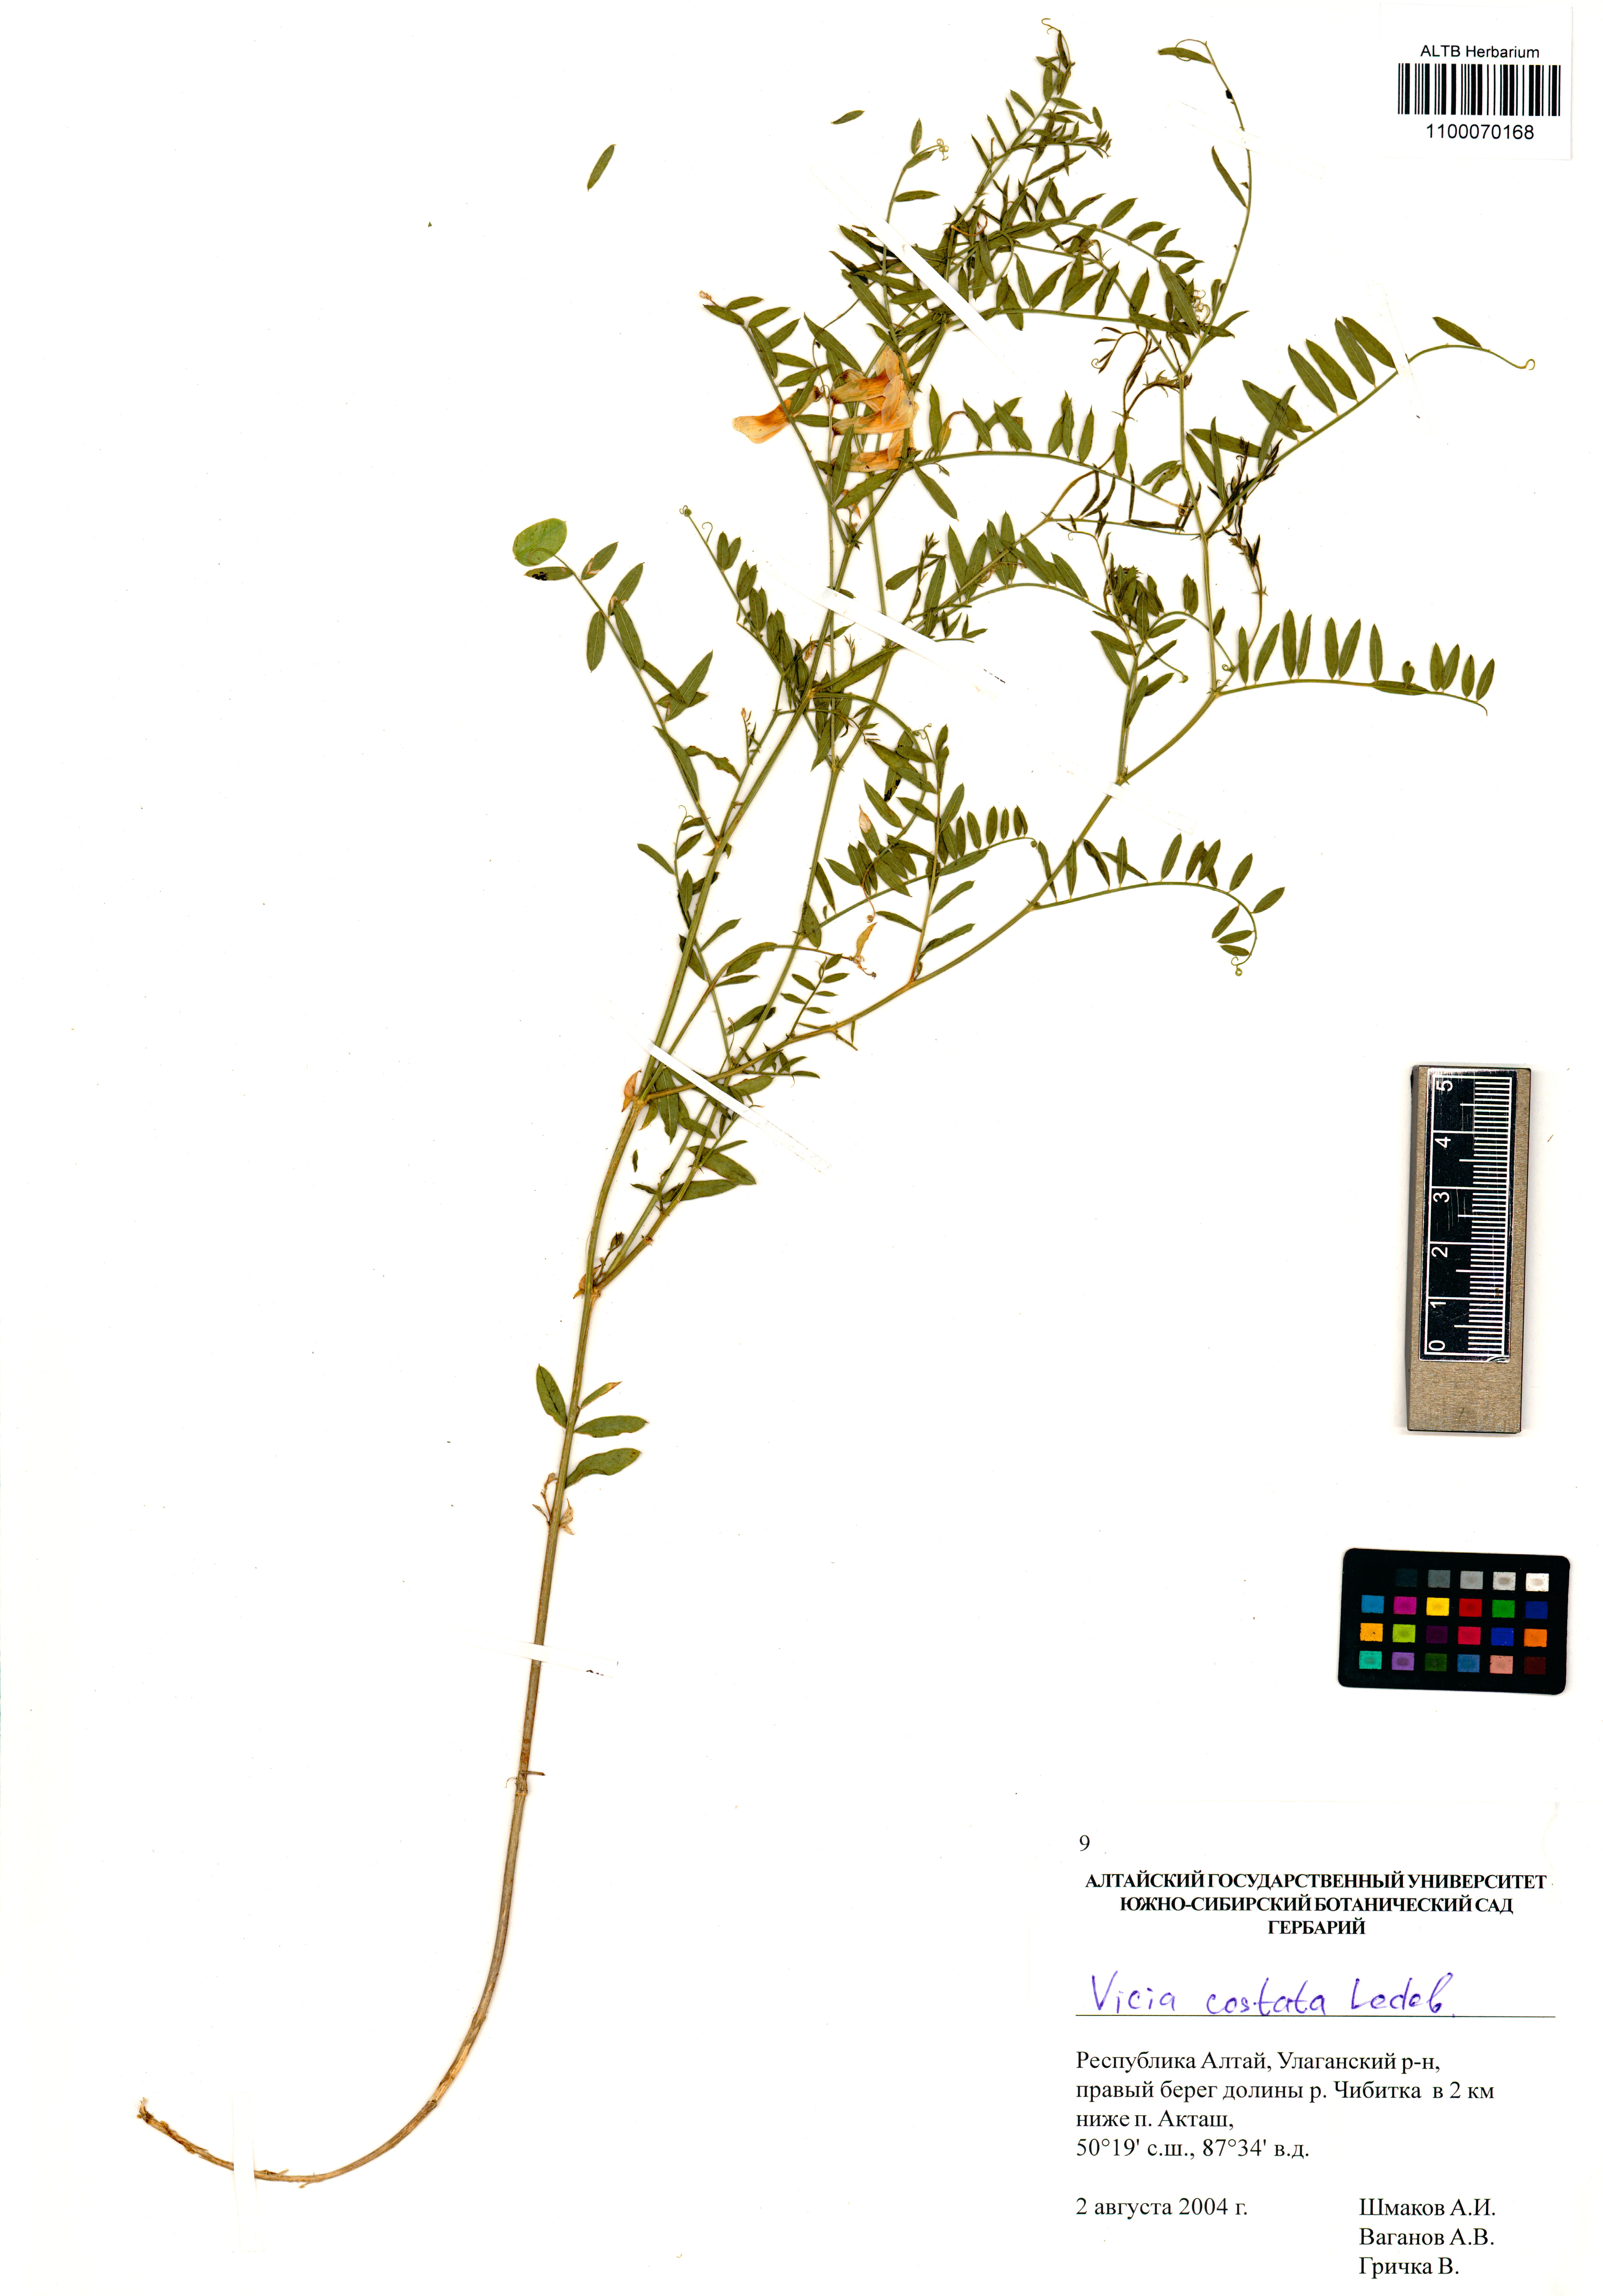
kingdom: Plantae
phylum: Tracheophyta
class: Magnoliopsida
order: Fabales
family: Fabaceae
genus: Vicia
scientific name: Vicia costata
